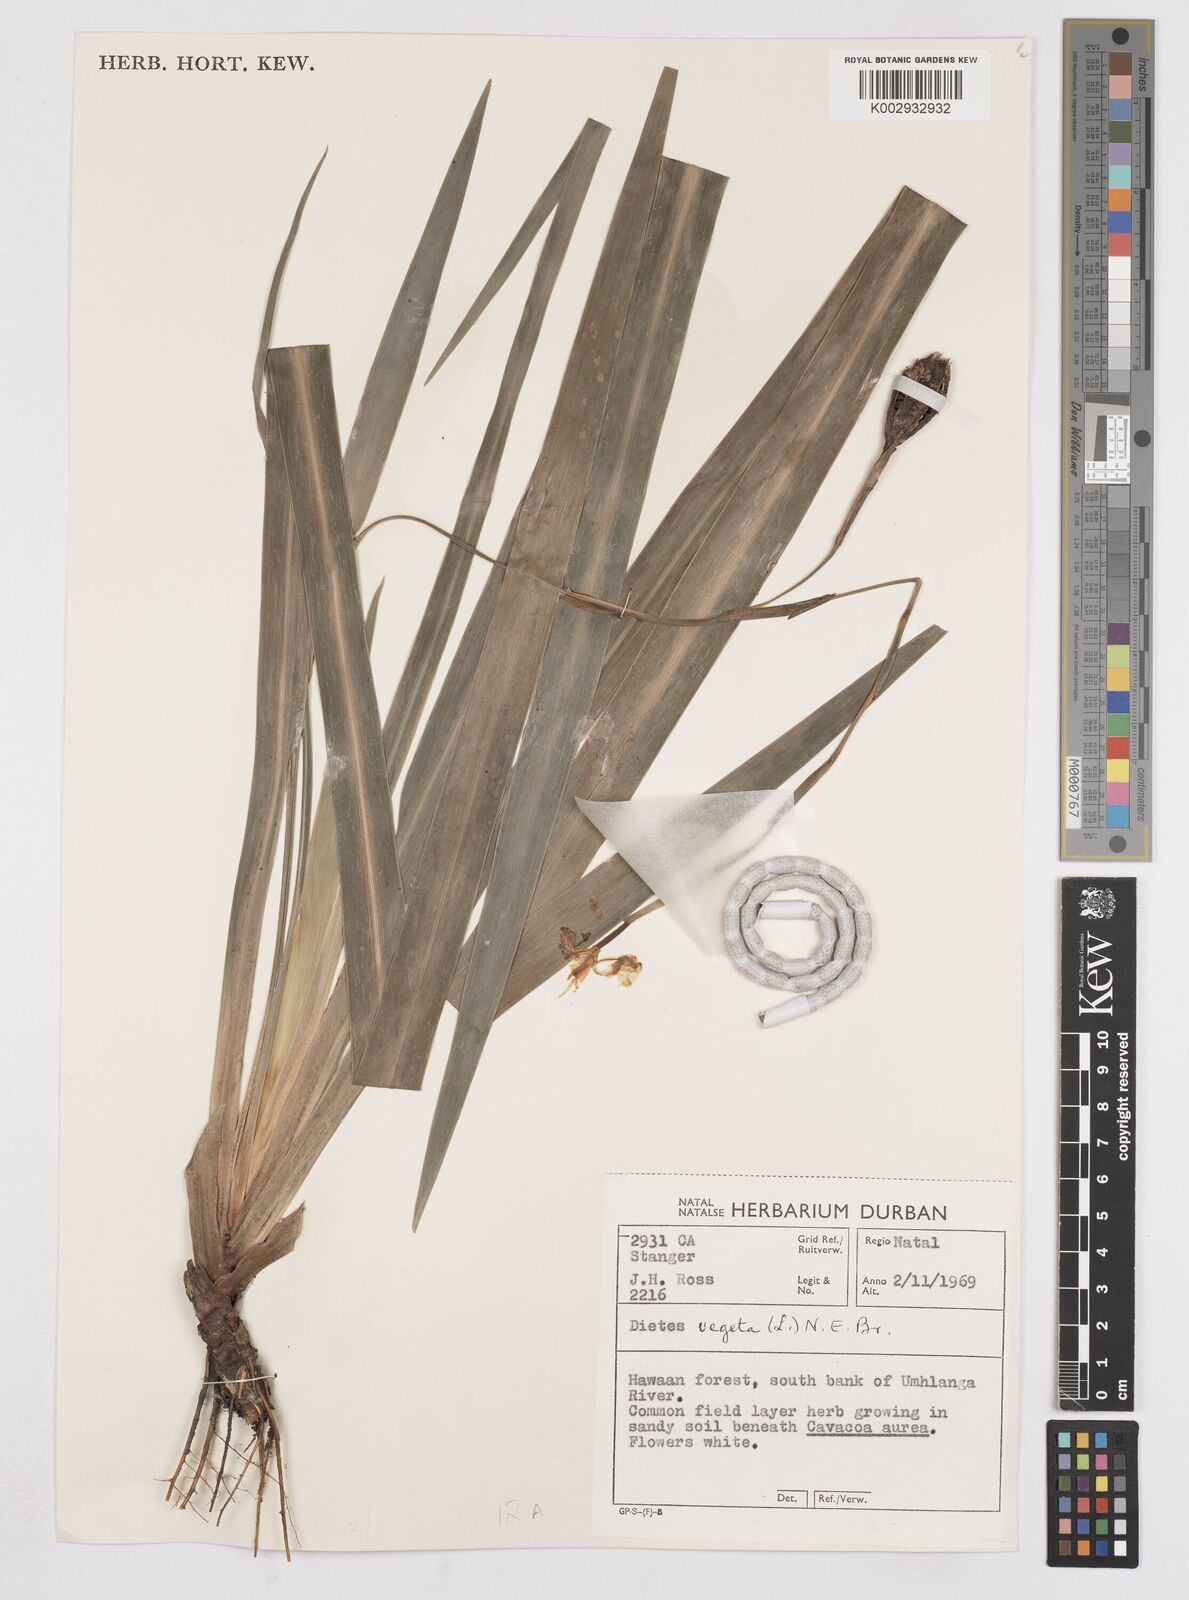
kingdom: Plantae
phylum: Tracheophyta
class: Liliopsida
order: Asparagales
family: Iridaceae
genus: Dietes
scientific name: Dietes iridioides
